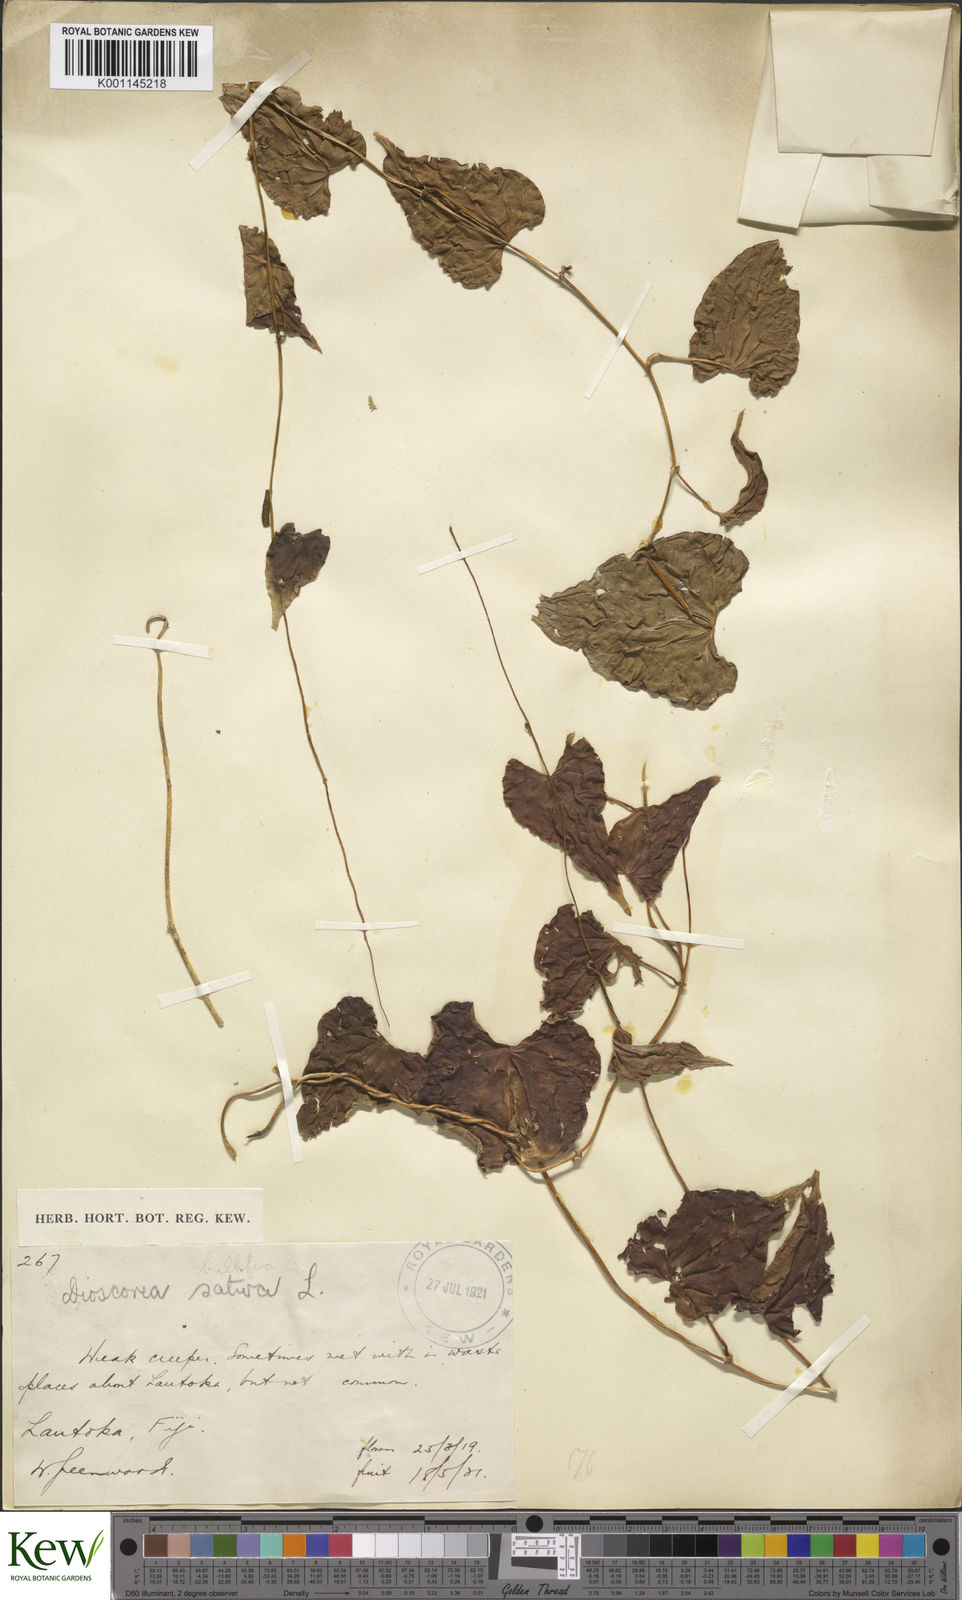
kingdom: Plantae
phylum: Tracheophyta
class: Liliopsida
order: Dioscoreales
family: Dioscoreaceae
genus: Dioscorea
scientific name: Dioscorea bulbifera
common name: Air yam
